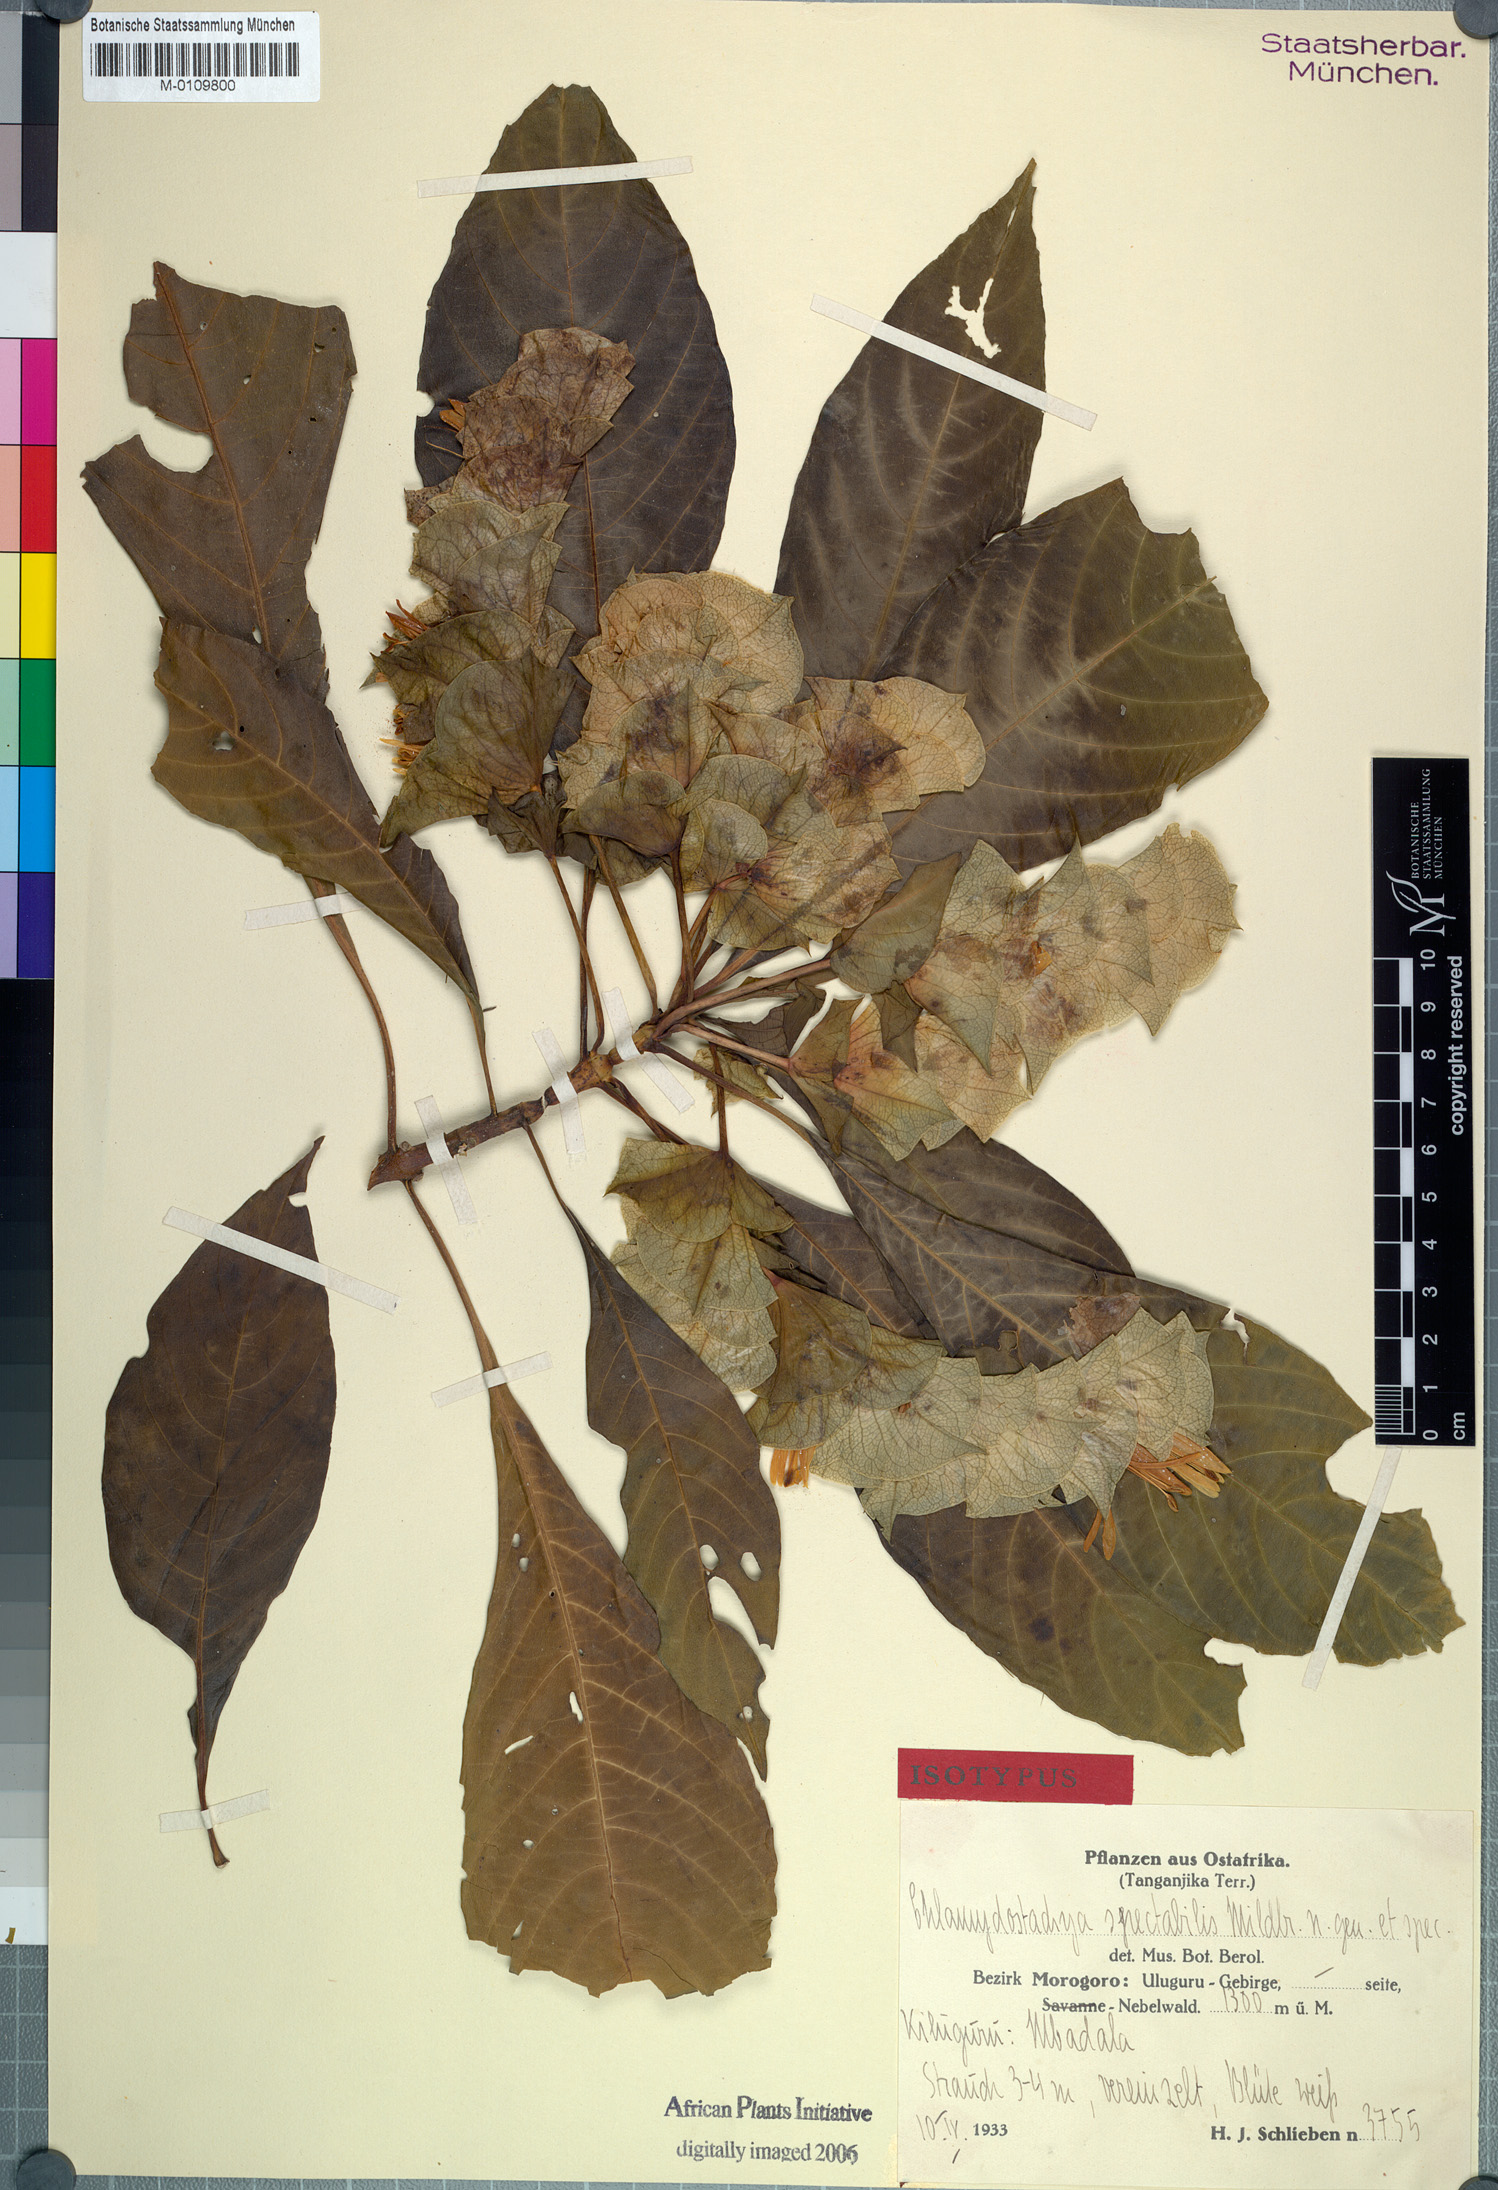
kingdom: Plantae
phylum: Tracheophyta
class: Magnoliopsida
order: Lamiales
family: Acanthaceae
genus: Anisotes
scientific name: Anisotes spectabilis
